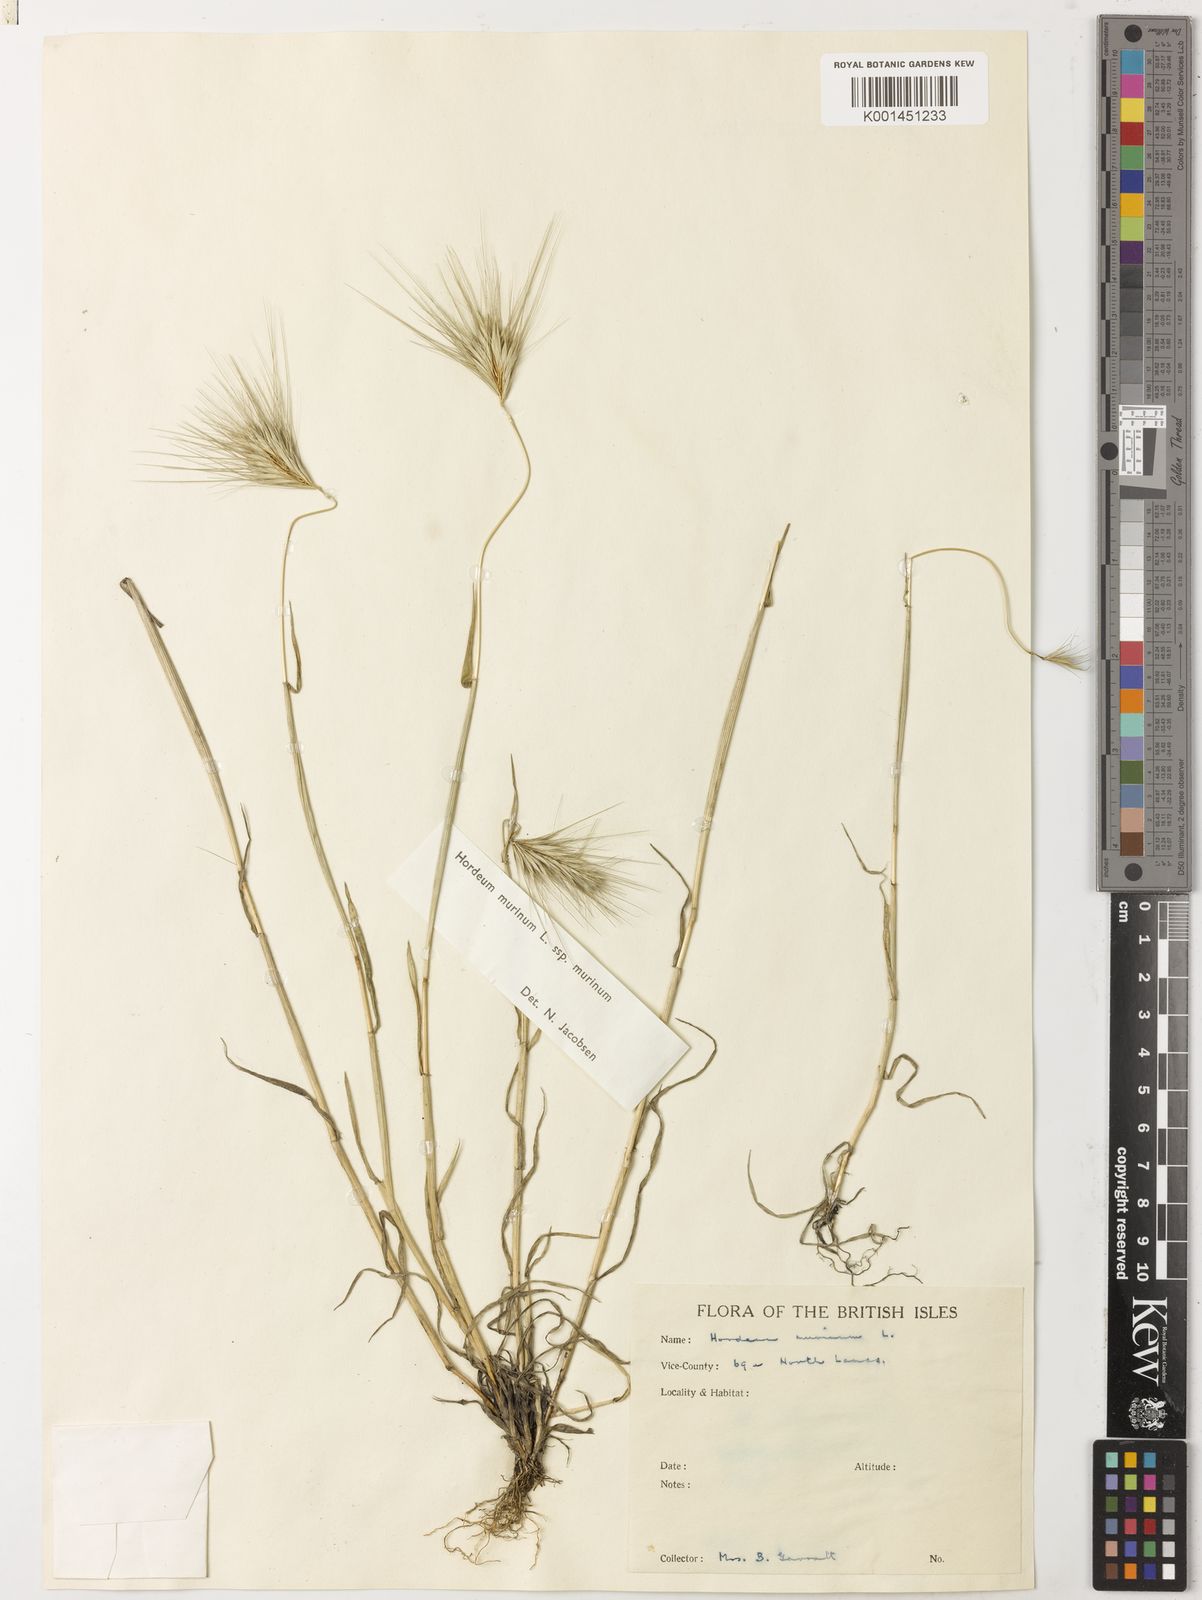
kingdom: Plantae
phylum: Tracheophyta
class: Liliopsida
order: Poales
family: Poaceae
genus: Hordeum
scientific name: Hordeum murinum
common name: Wall barley
